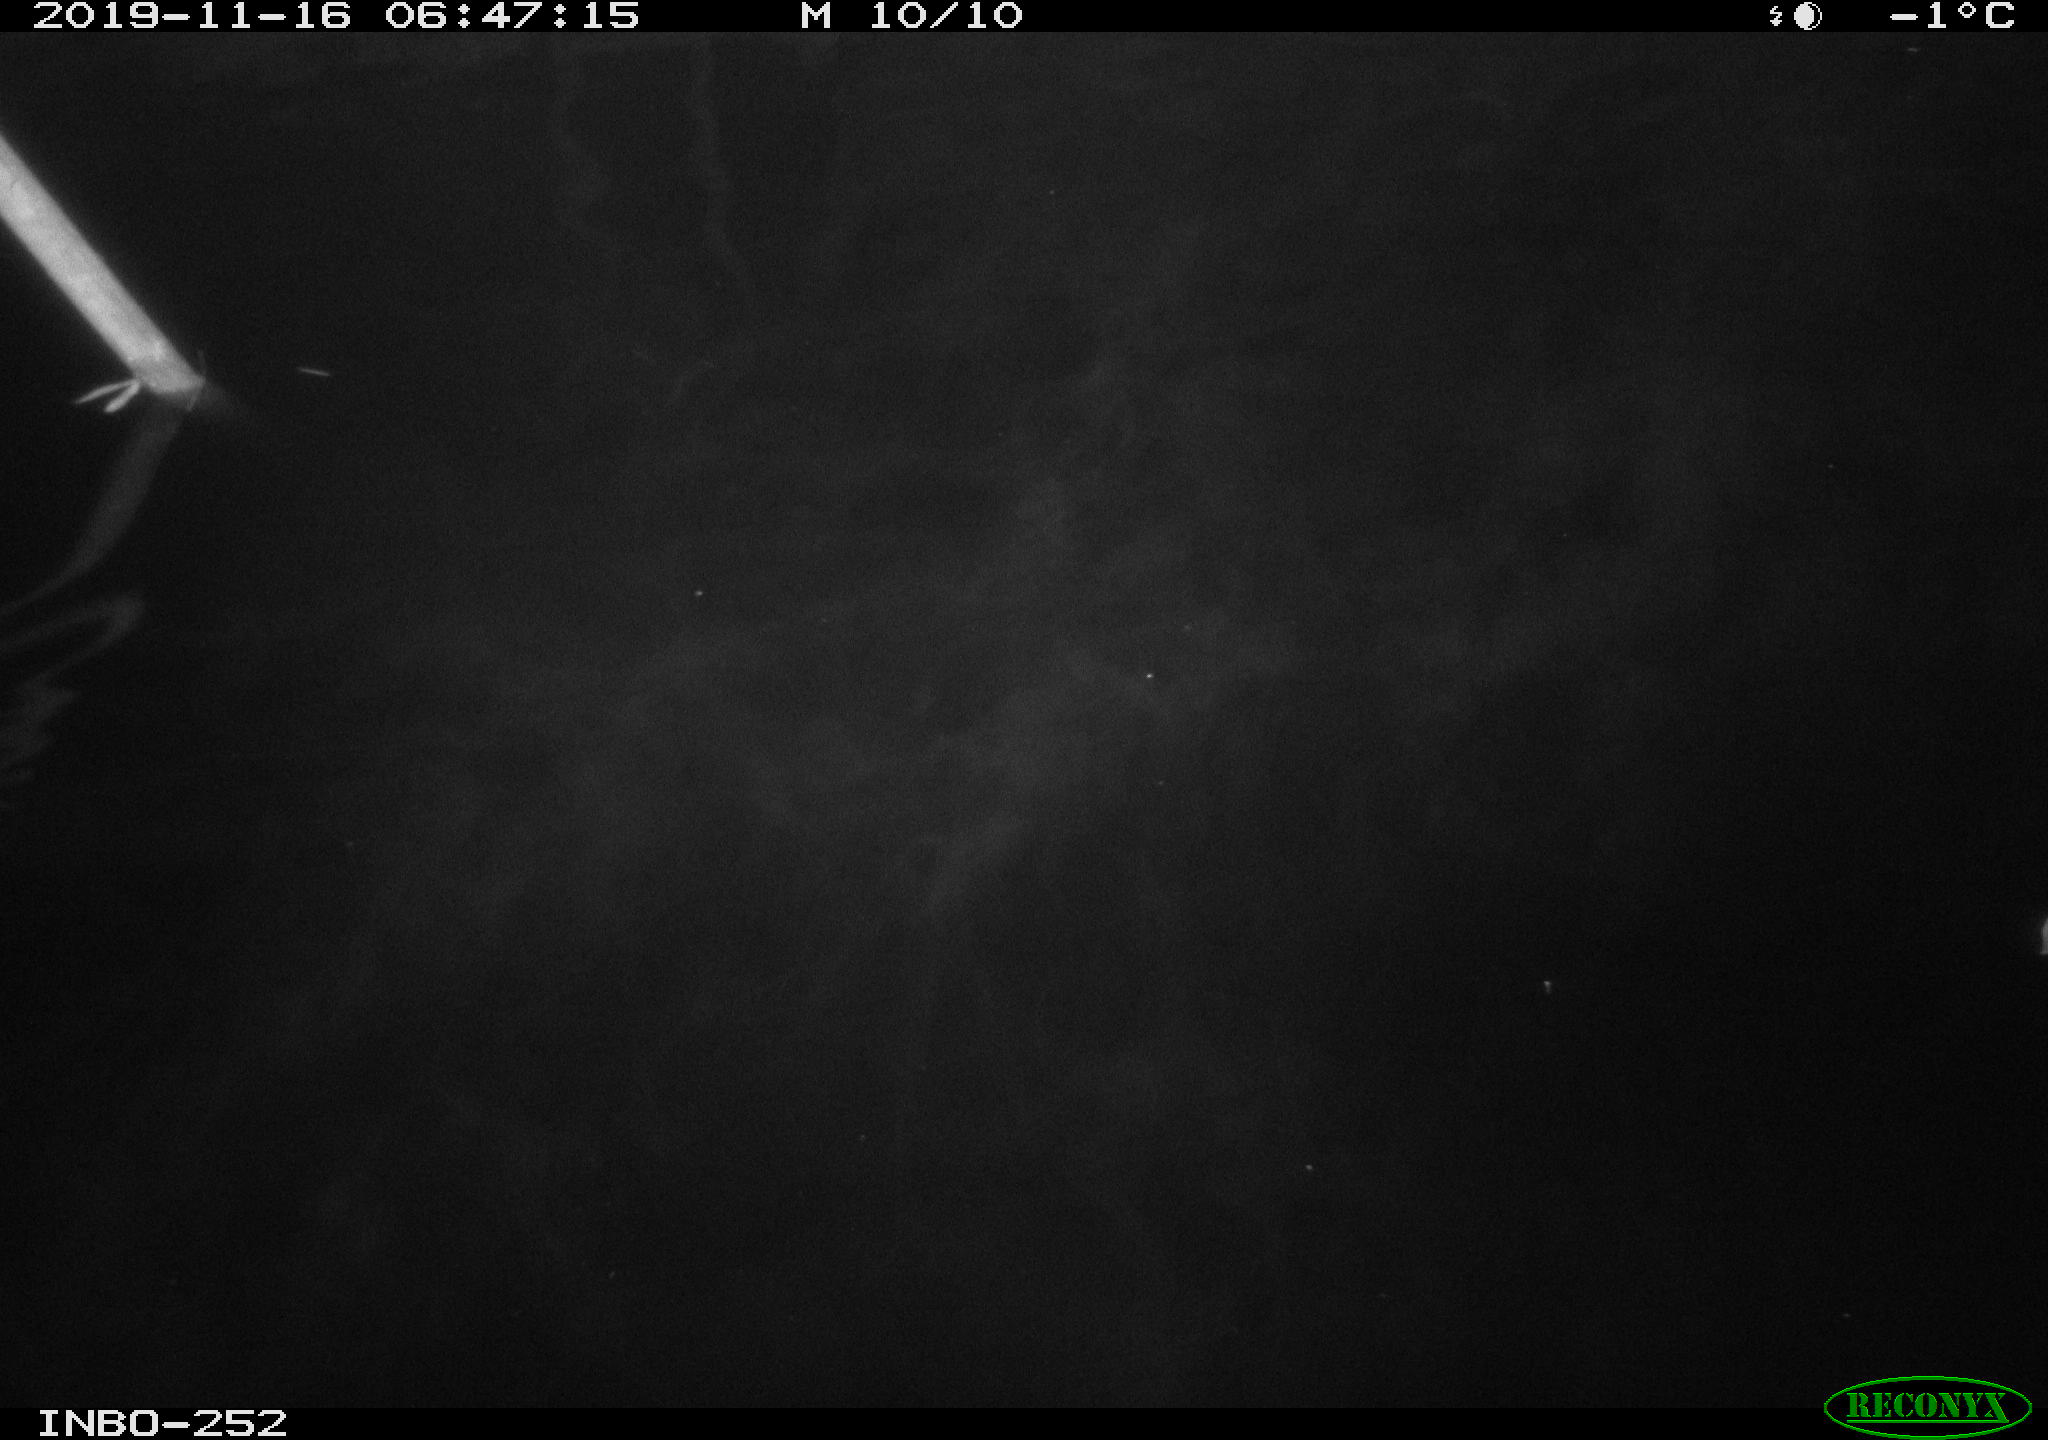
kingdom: Animalia
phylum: Chordata
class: Aves
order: Anseriformes
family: Anatidae
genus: Anas
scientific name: Anas platyrhynchos
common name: Mallard
